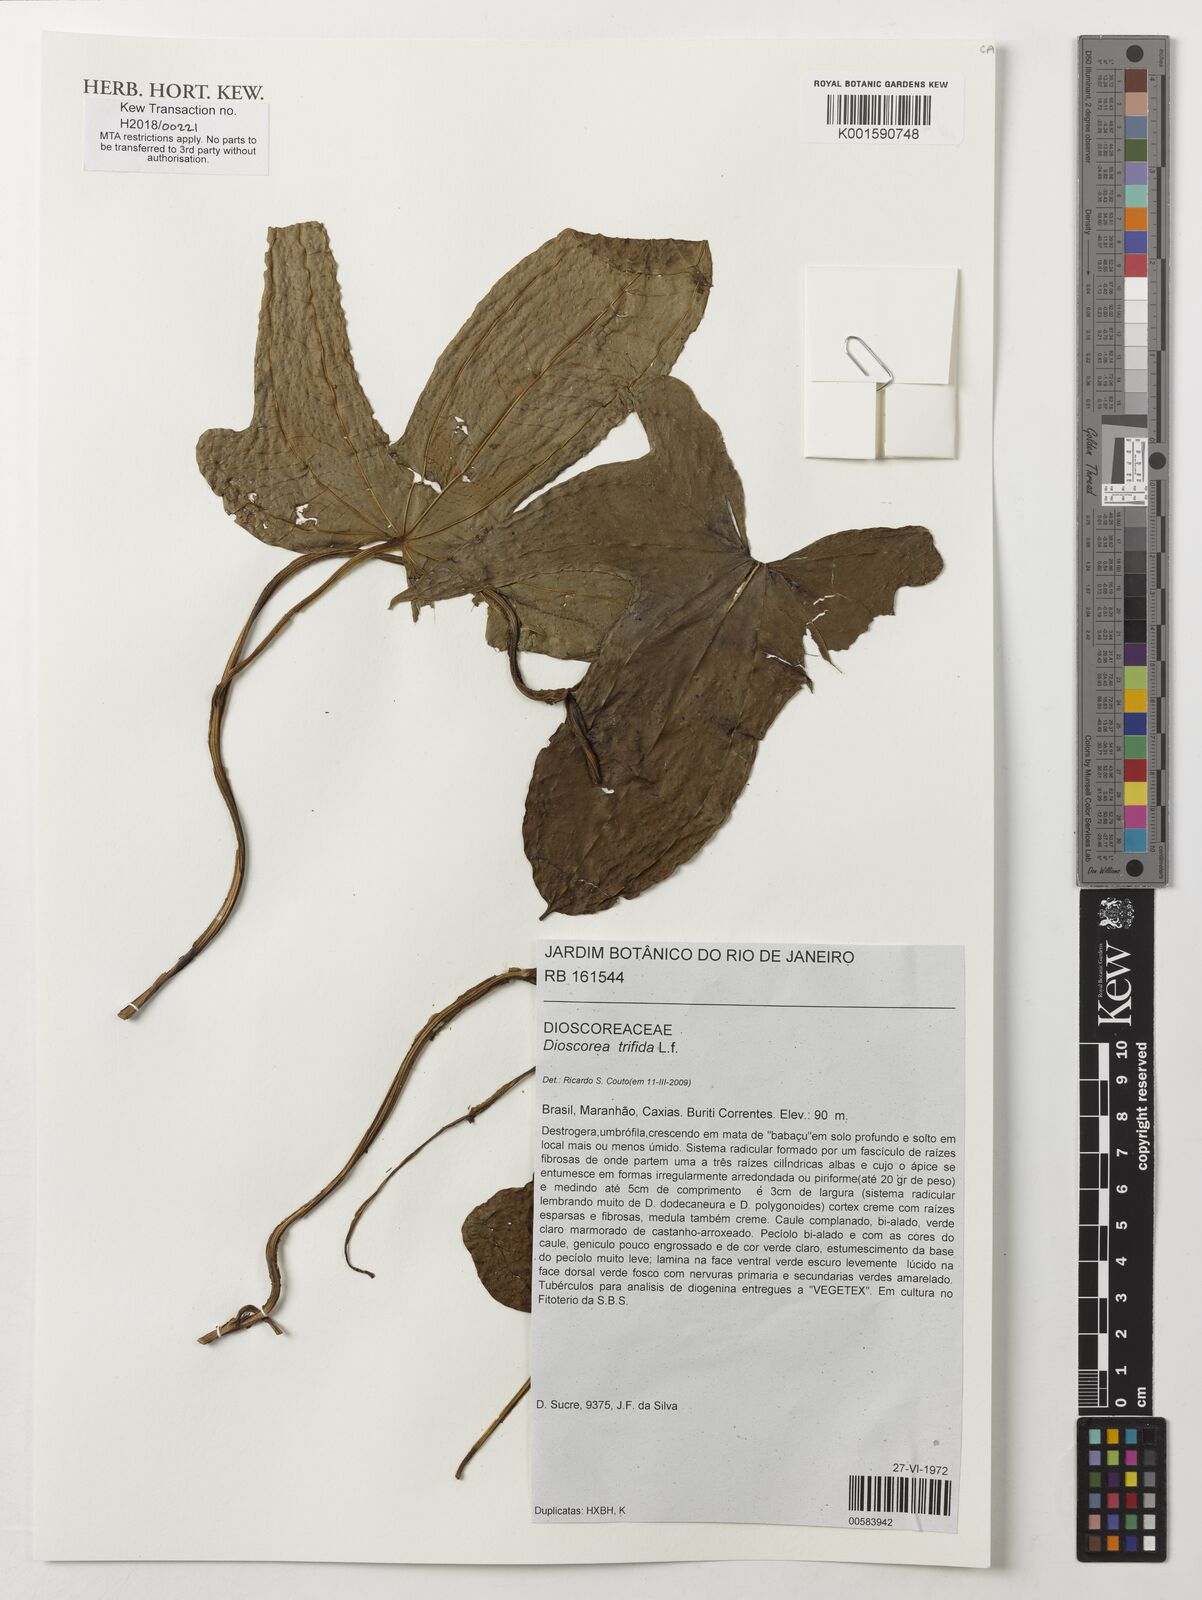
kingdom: Plantae
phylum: Tracheophyta
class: Liliopsida
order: Dioscoreales
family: Dioscoreaceae
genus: Dioscorea
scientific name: Dioscorea trifida
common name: Cush-cush
